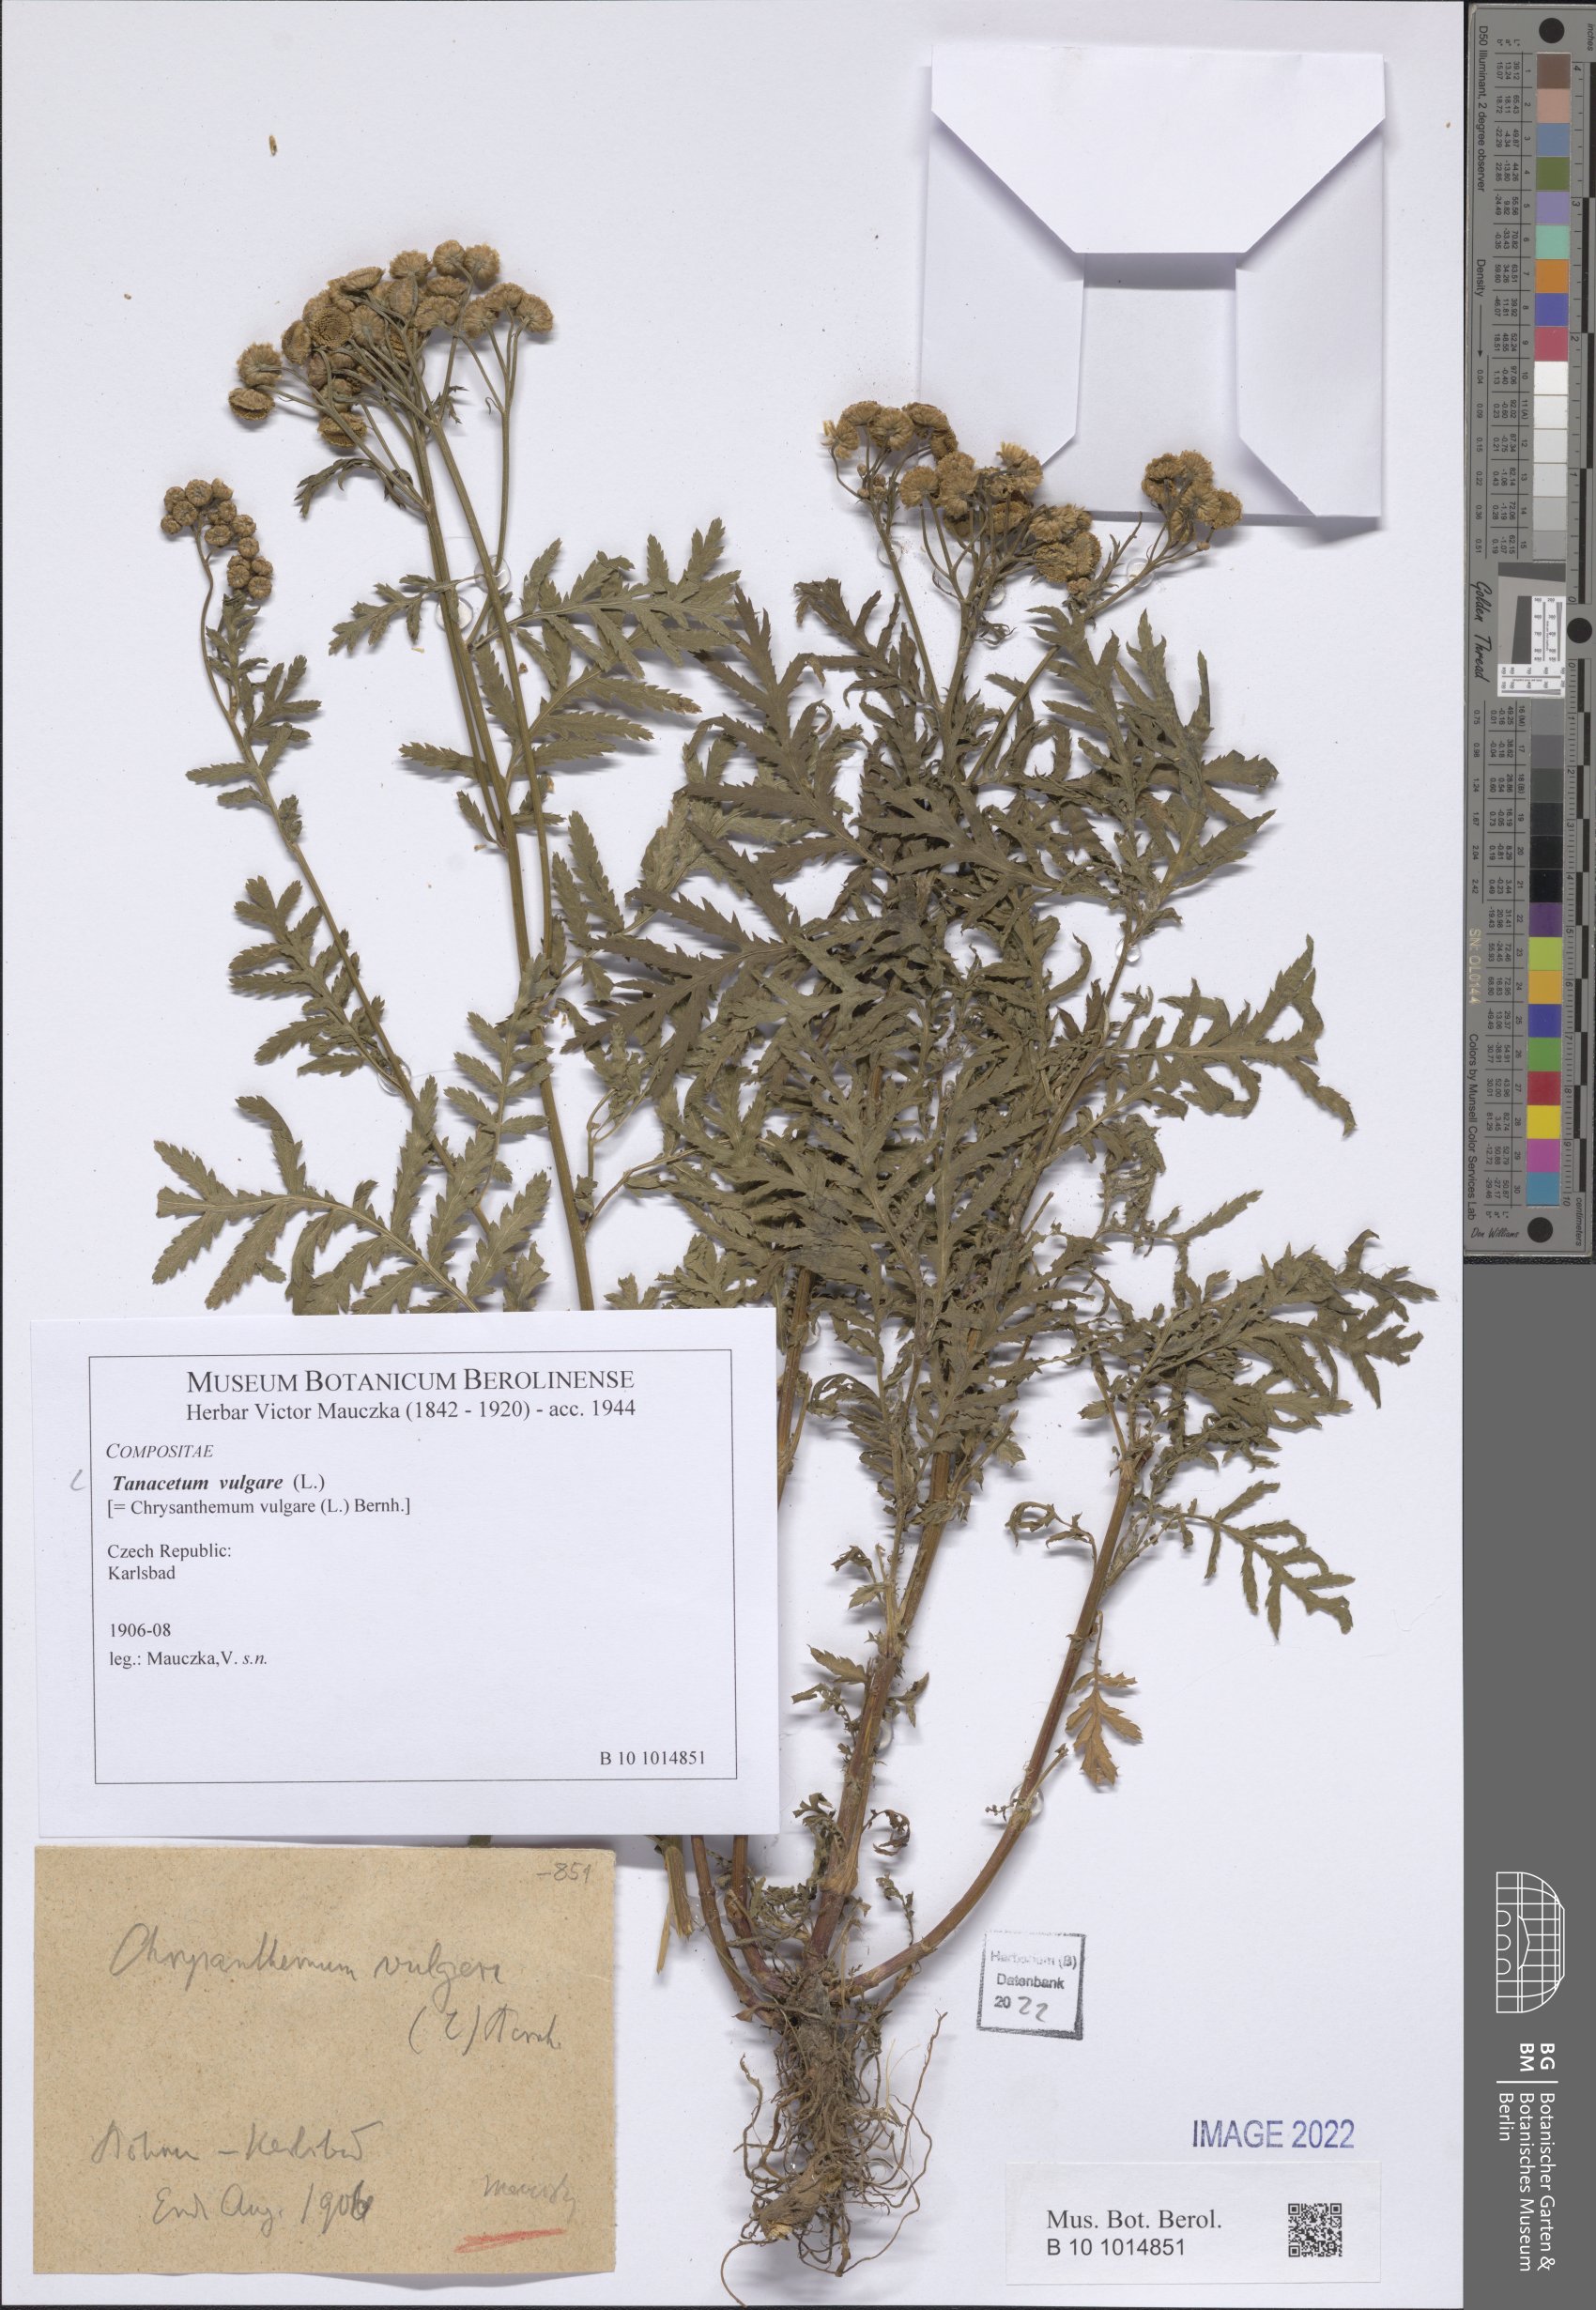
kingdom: Plantae
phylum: Tracheophyta
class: Magnoliopsida
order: Asterales
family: Asteraceae
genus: Tanacetum
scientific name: Tanacetum vulgare
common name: Common tansy
